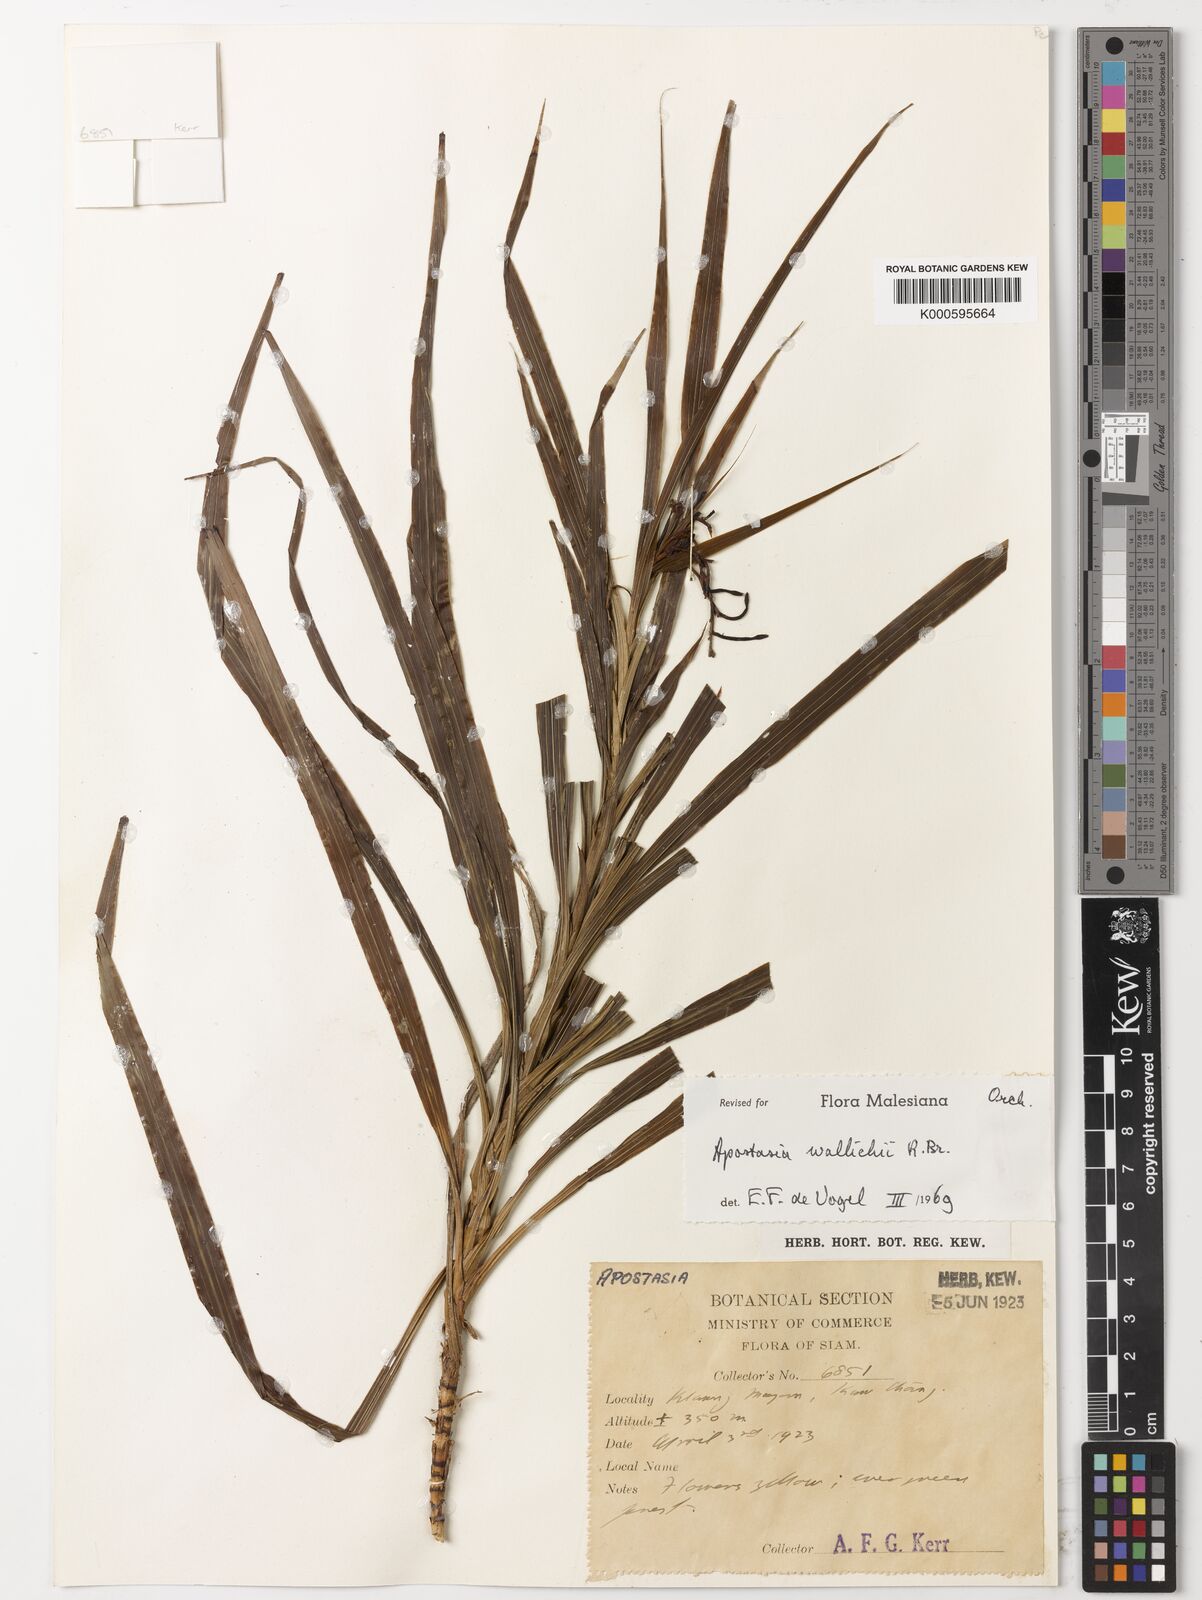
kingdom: Plantae
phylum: Tracheophyta
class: Liliopsida
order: Asparagales
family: Orchidaceae
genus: Apostasia
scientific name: Apostasia wallichii
